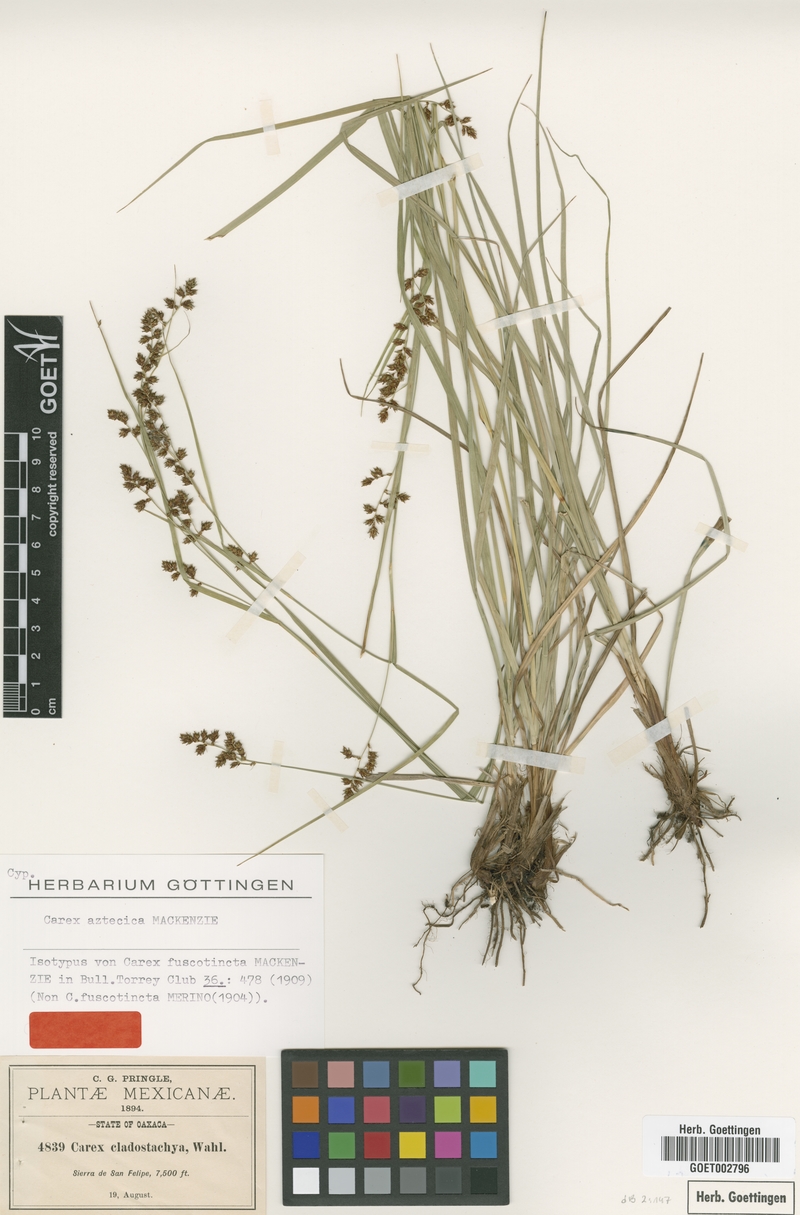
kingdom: Plantae
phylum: Tracheophyta
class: Liliopsida
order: Poales
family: Cyperaceae
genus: Carex
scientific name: Carex aztecica
